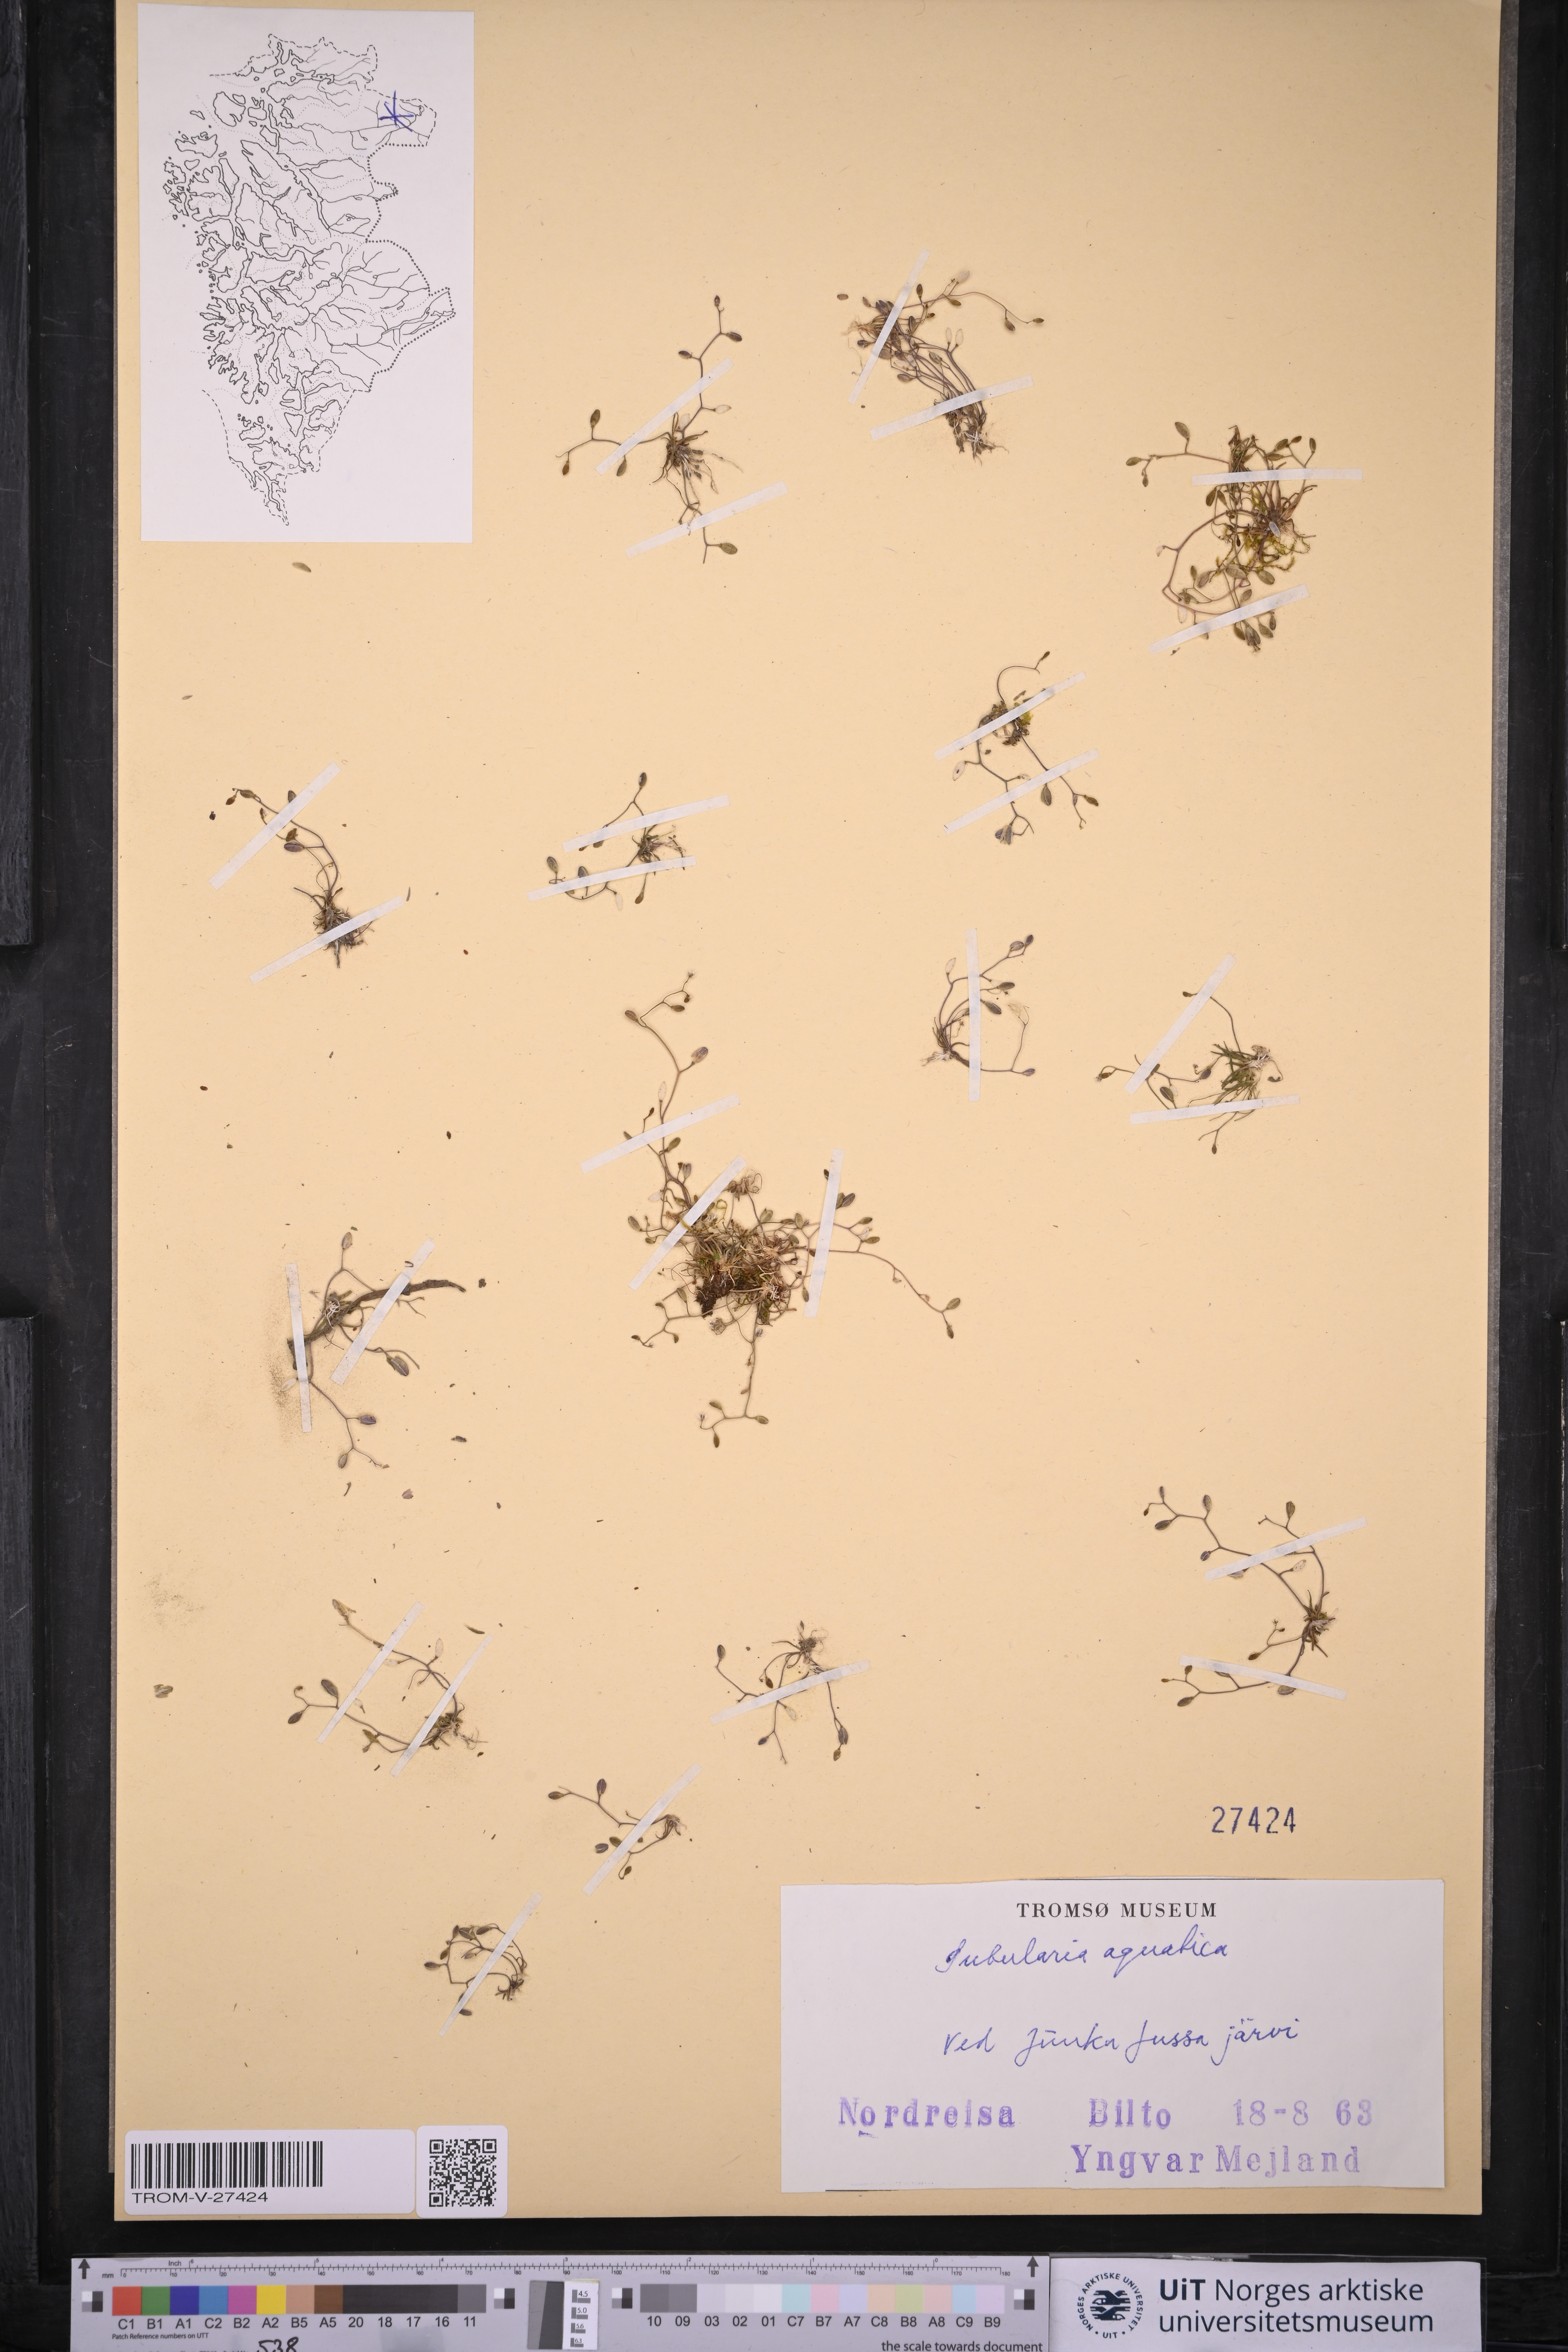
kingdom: Plantae
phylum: Tracheophyta
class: Magnoliopsida
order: Brassicales
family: Brassicaceae
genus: Subularia
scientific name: Subularia aquatica
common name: Awlwort
